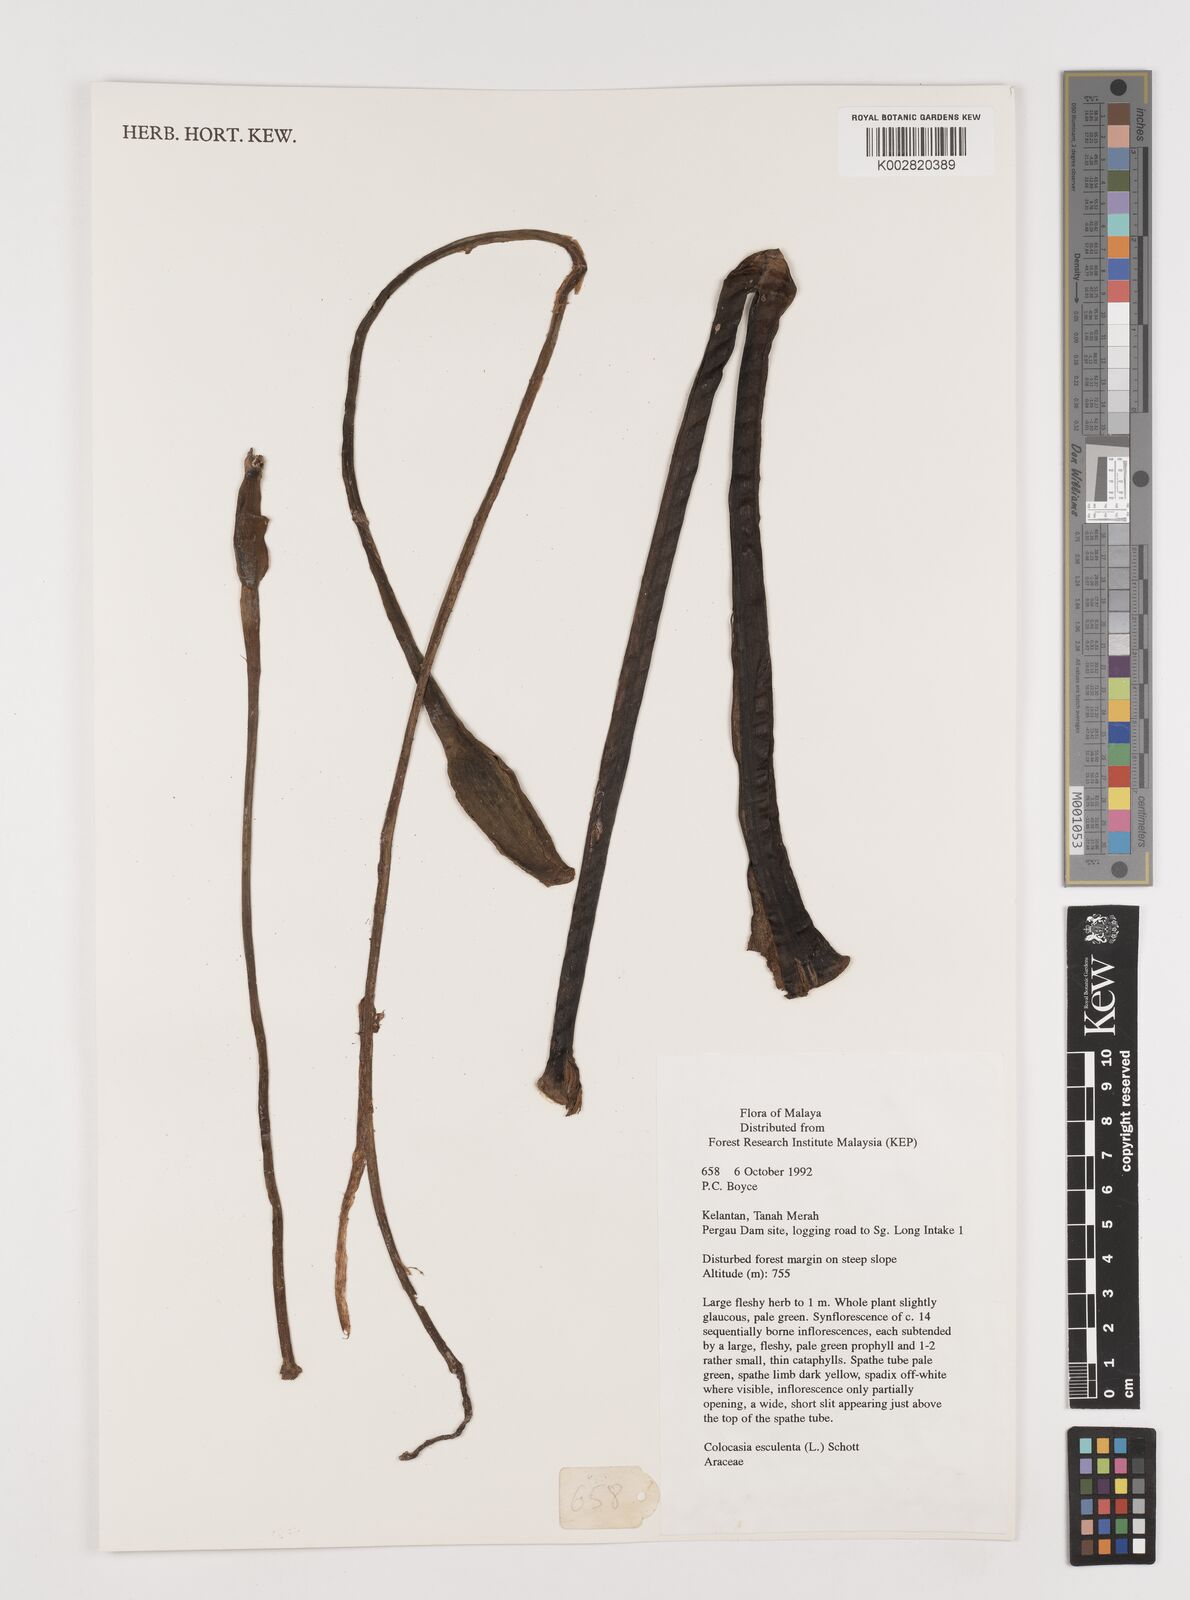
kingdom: Plantae
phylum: Tracheophyta
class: Liliopsida
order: Alismatales
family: Araceae
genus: Colocasia
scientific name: Colocasia esculenta
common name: Taro
